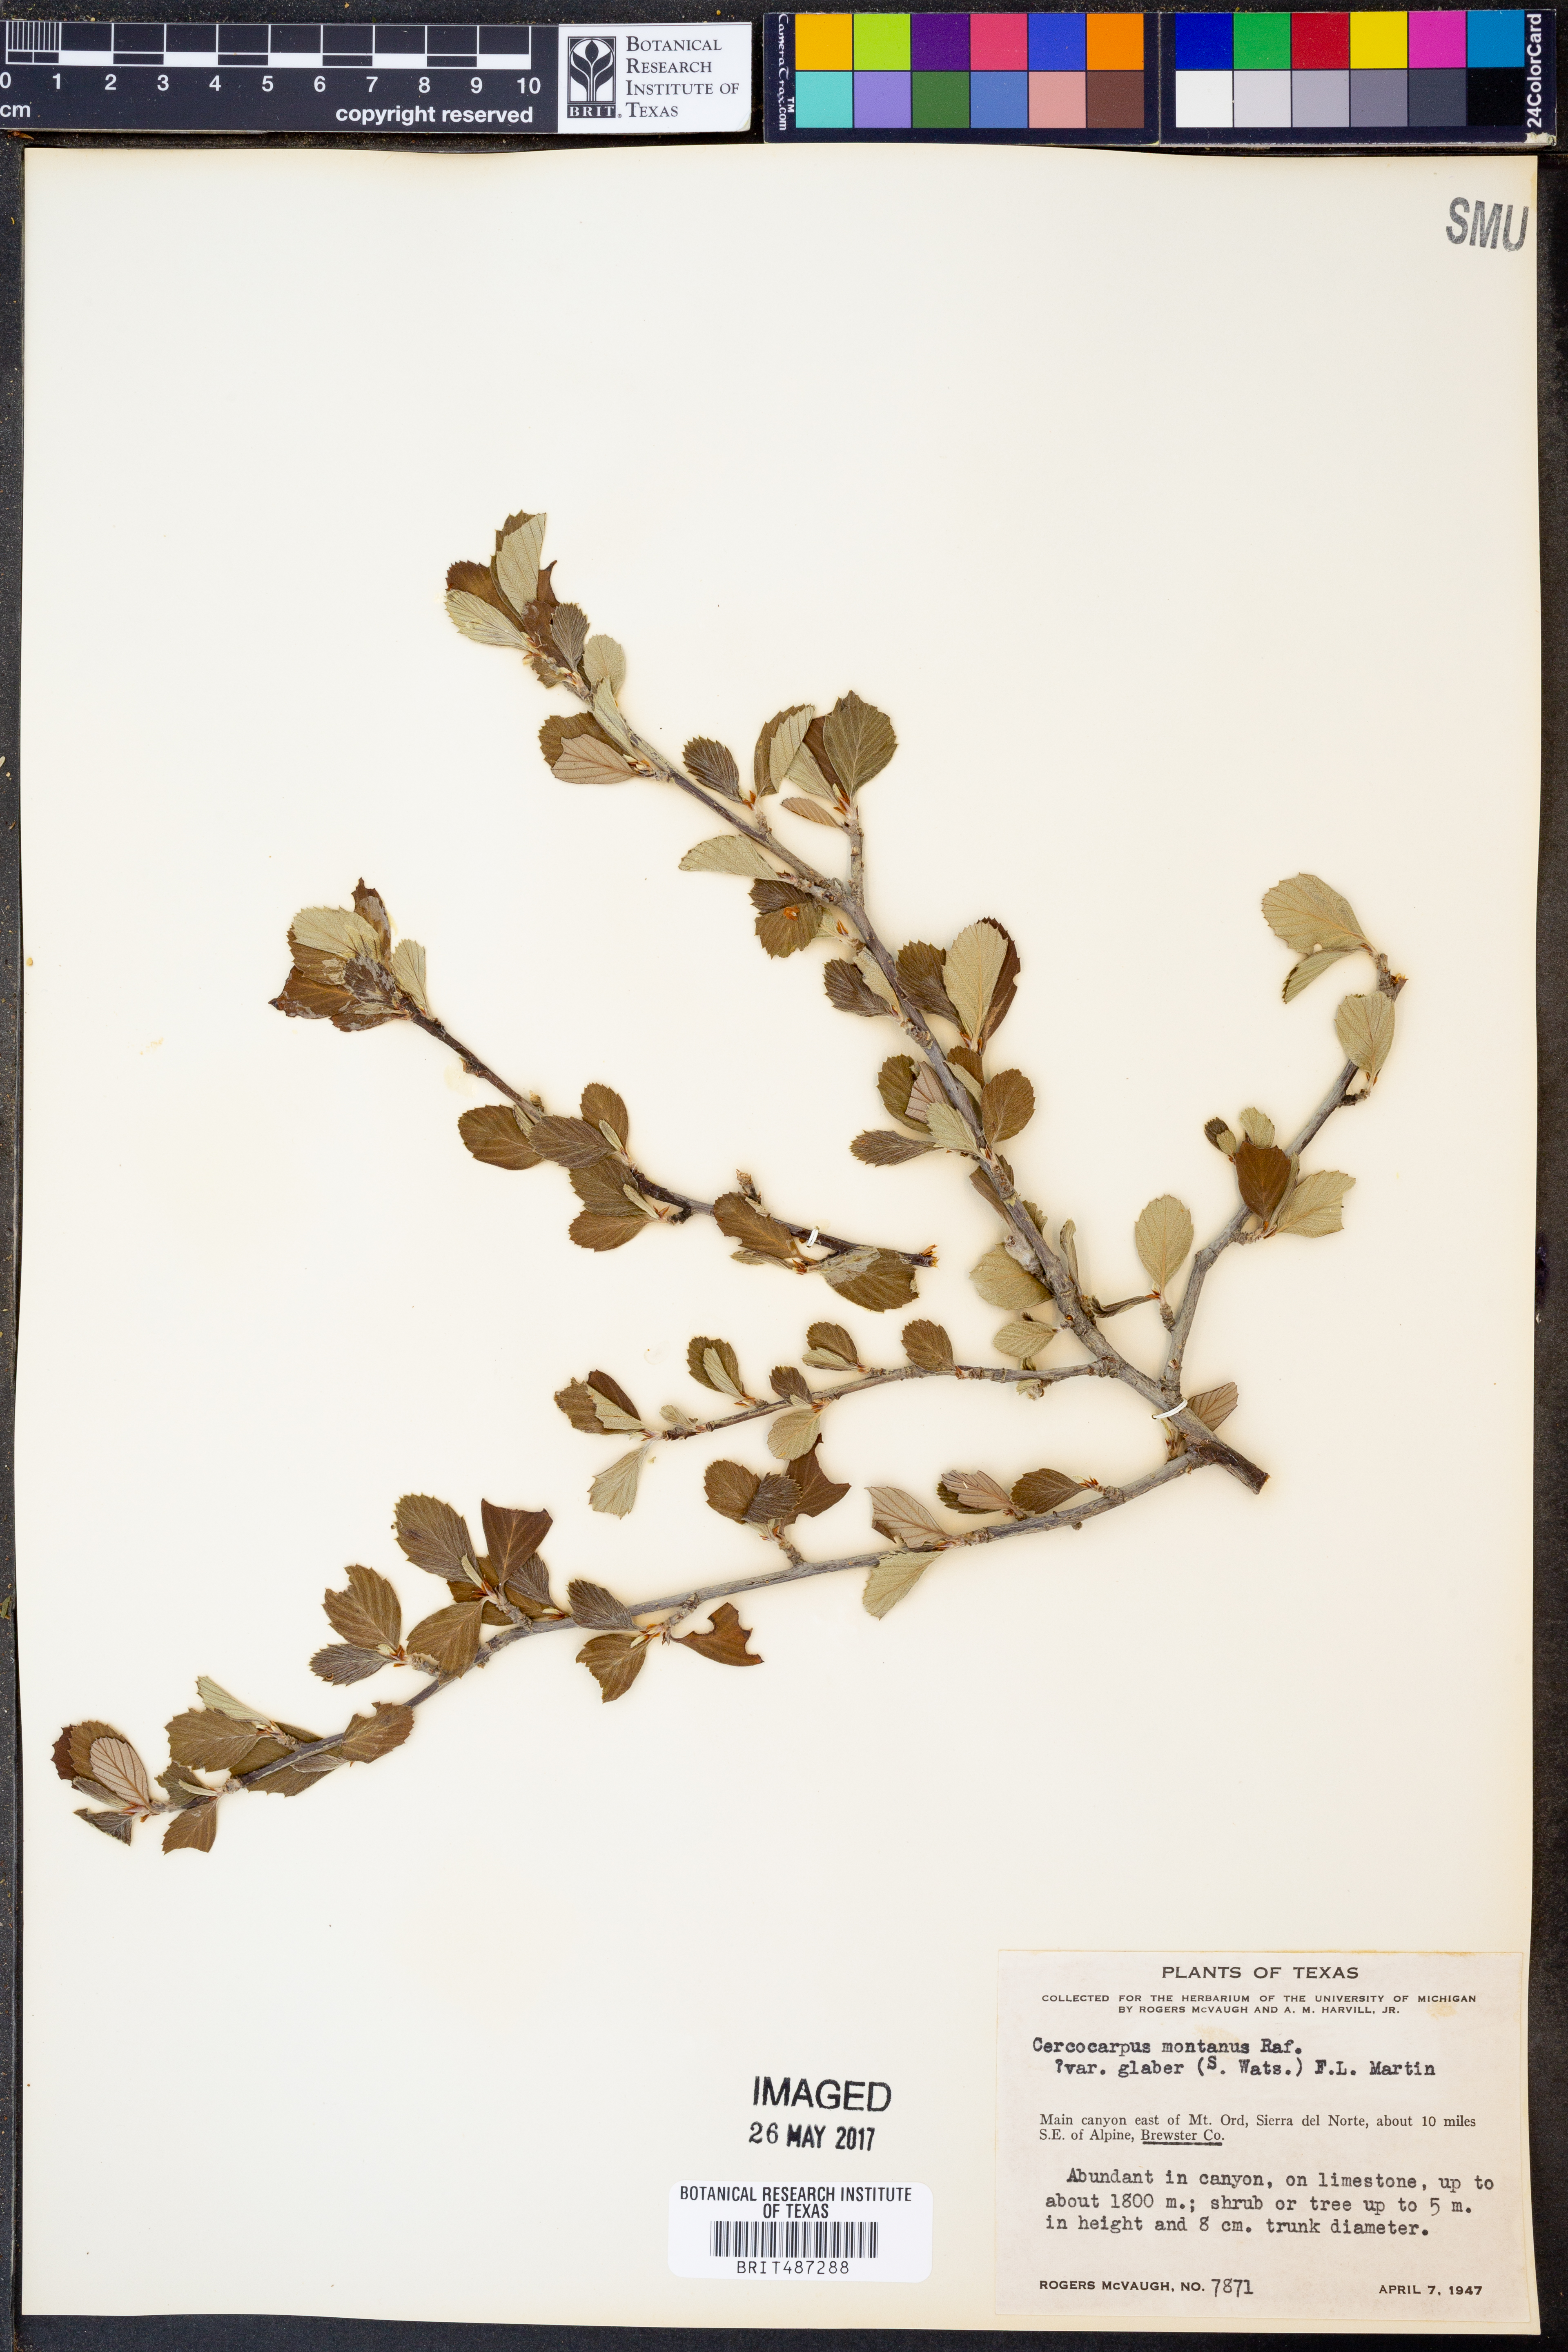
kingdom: Plantae
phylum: Tracheophyta
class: Magnoliopsida
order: Rosales
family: Rosaceae
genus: Cercocarpus
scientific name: Cercocarpus betuloides
